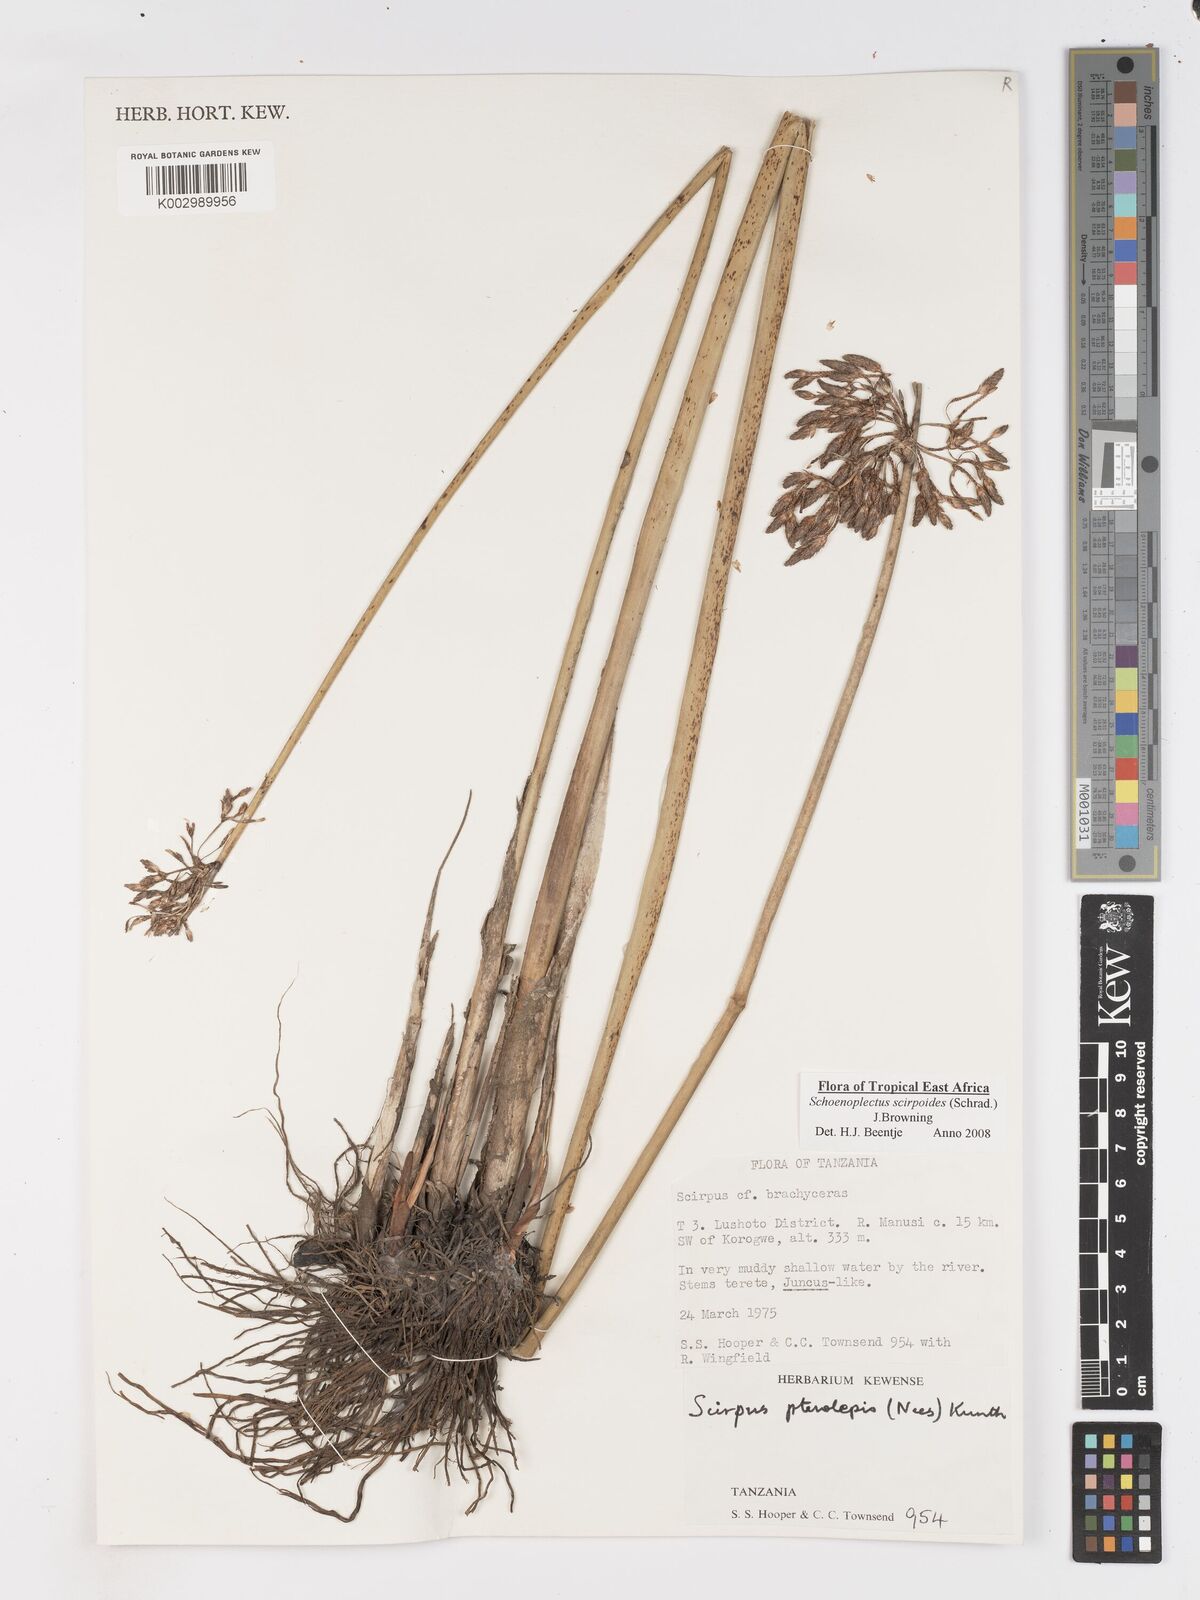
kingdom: Plantae
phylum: Tracheophyta
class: Liliopsida
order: Poales
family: Cyperaceae
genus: Schoenoplectus
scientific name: Schoenoplectus
